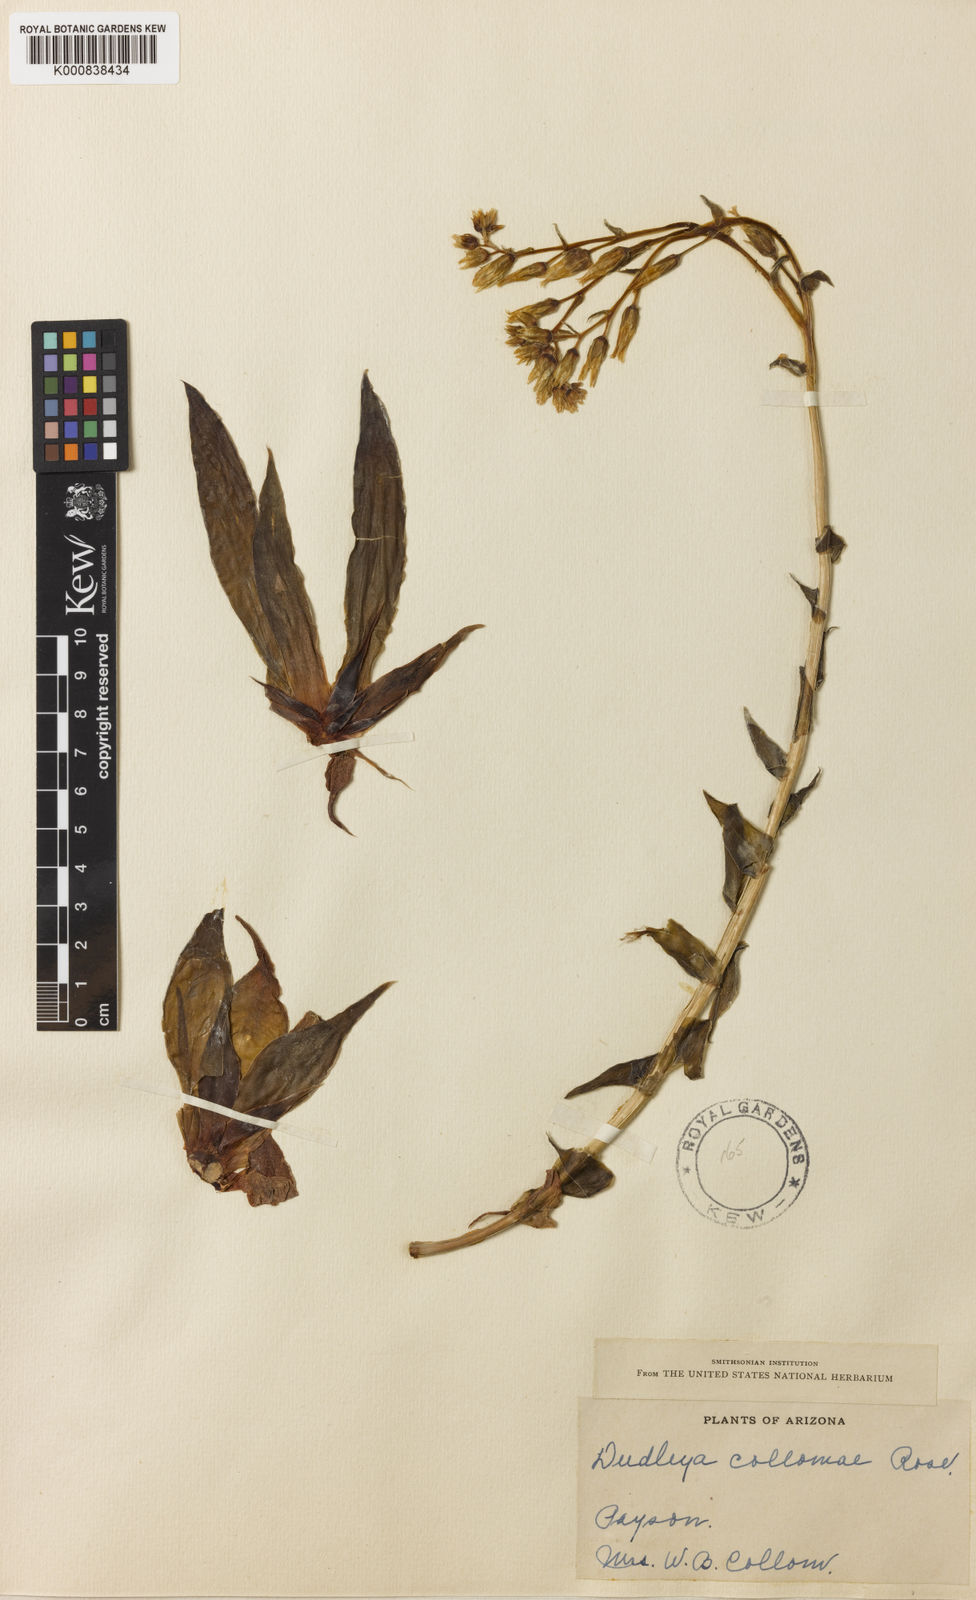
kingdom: Plantae
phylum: Tracheophyta
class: Magnoliopsida
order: Saxifragales
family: Crassulaceae
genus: Dudleya
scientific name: Dudleya collomiae
